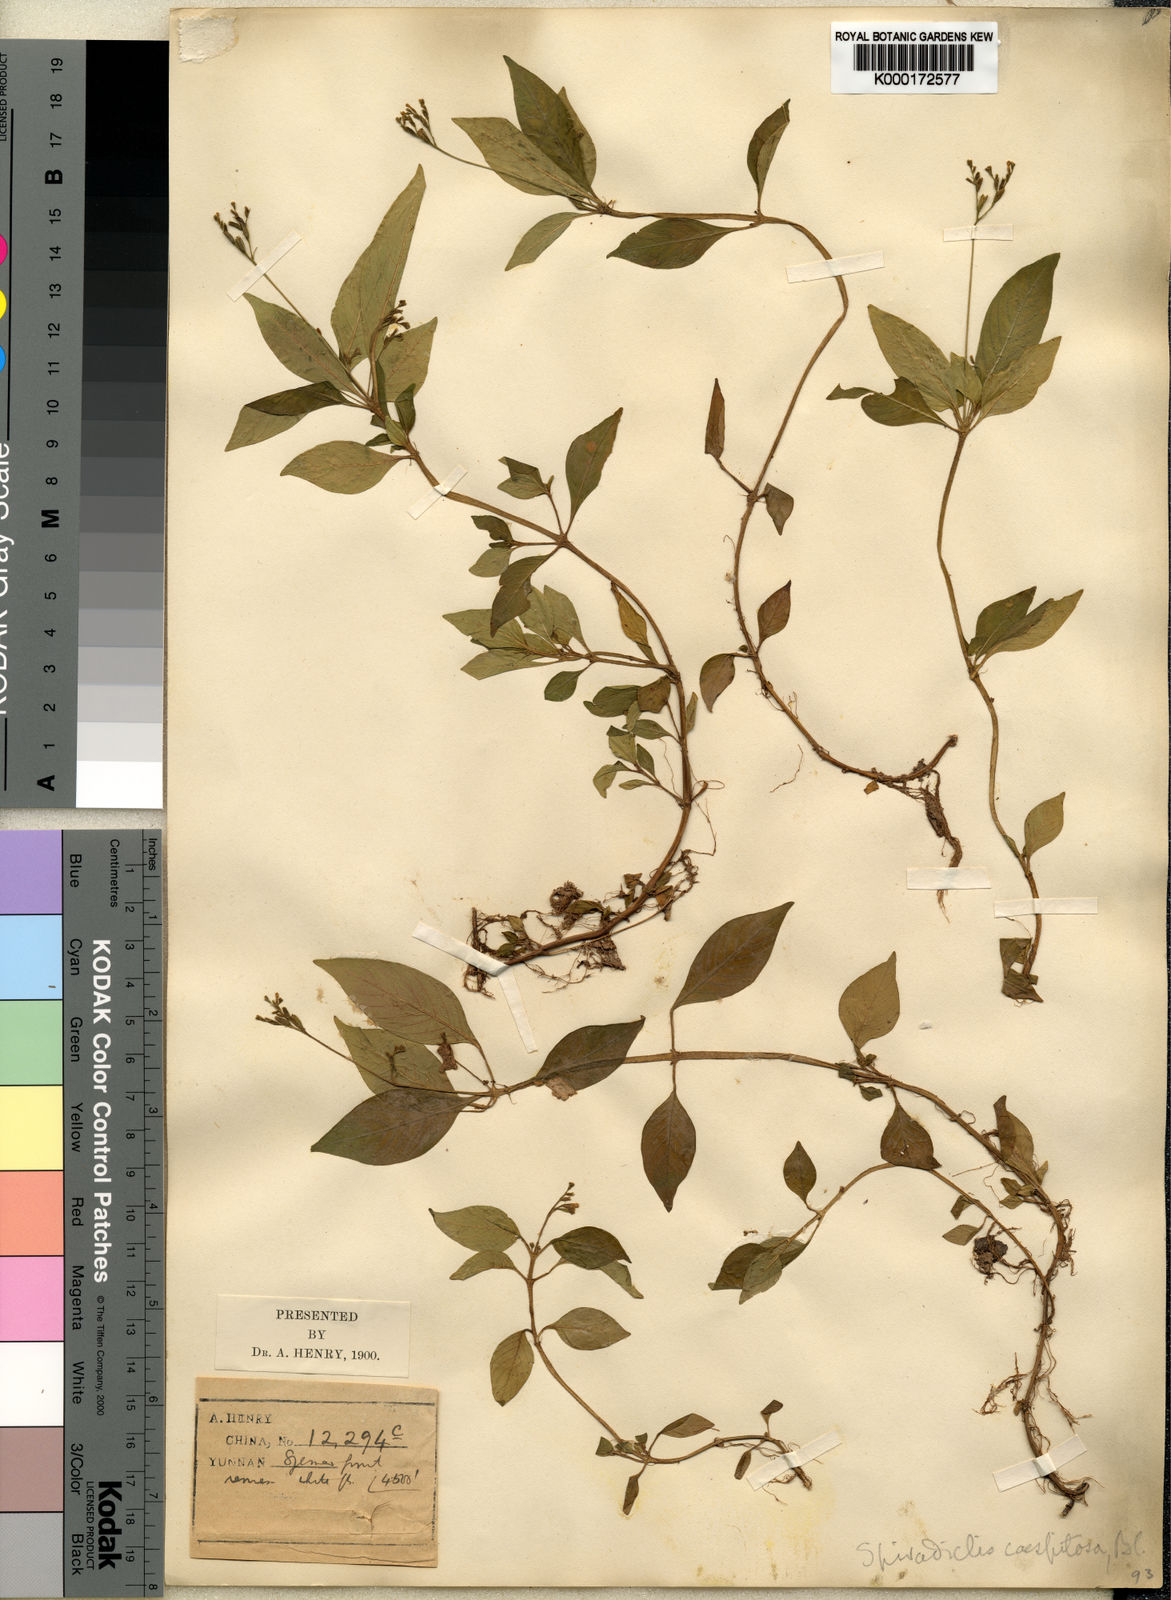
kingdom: Plantae
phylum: Tracheophyta
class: Magnoliopsida
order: Gentianales
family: Rubiaceae
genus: Ophiorrhiza
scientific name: Ophiorrhiza caespitosa
